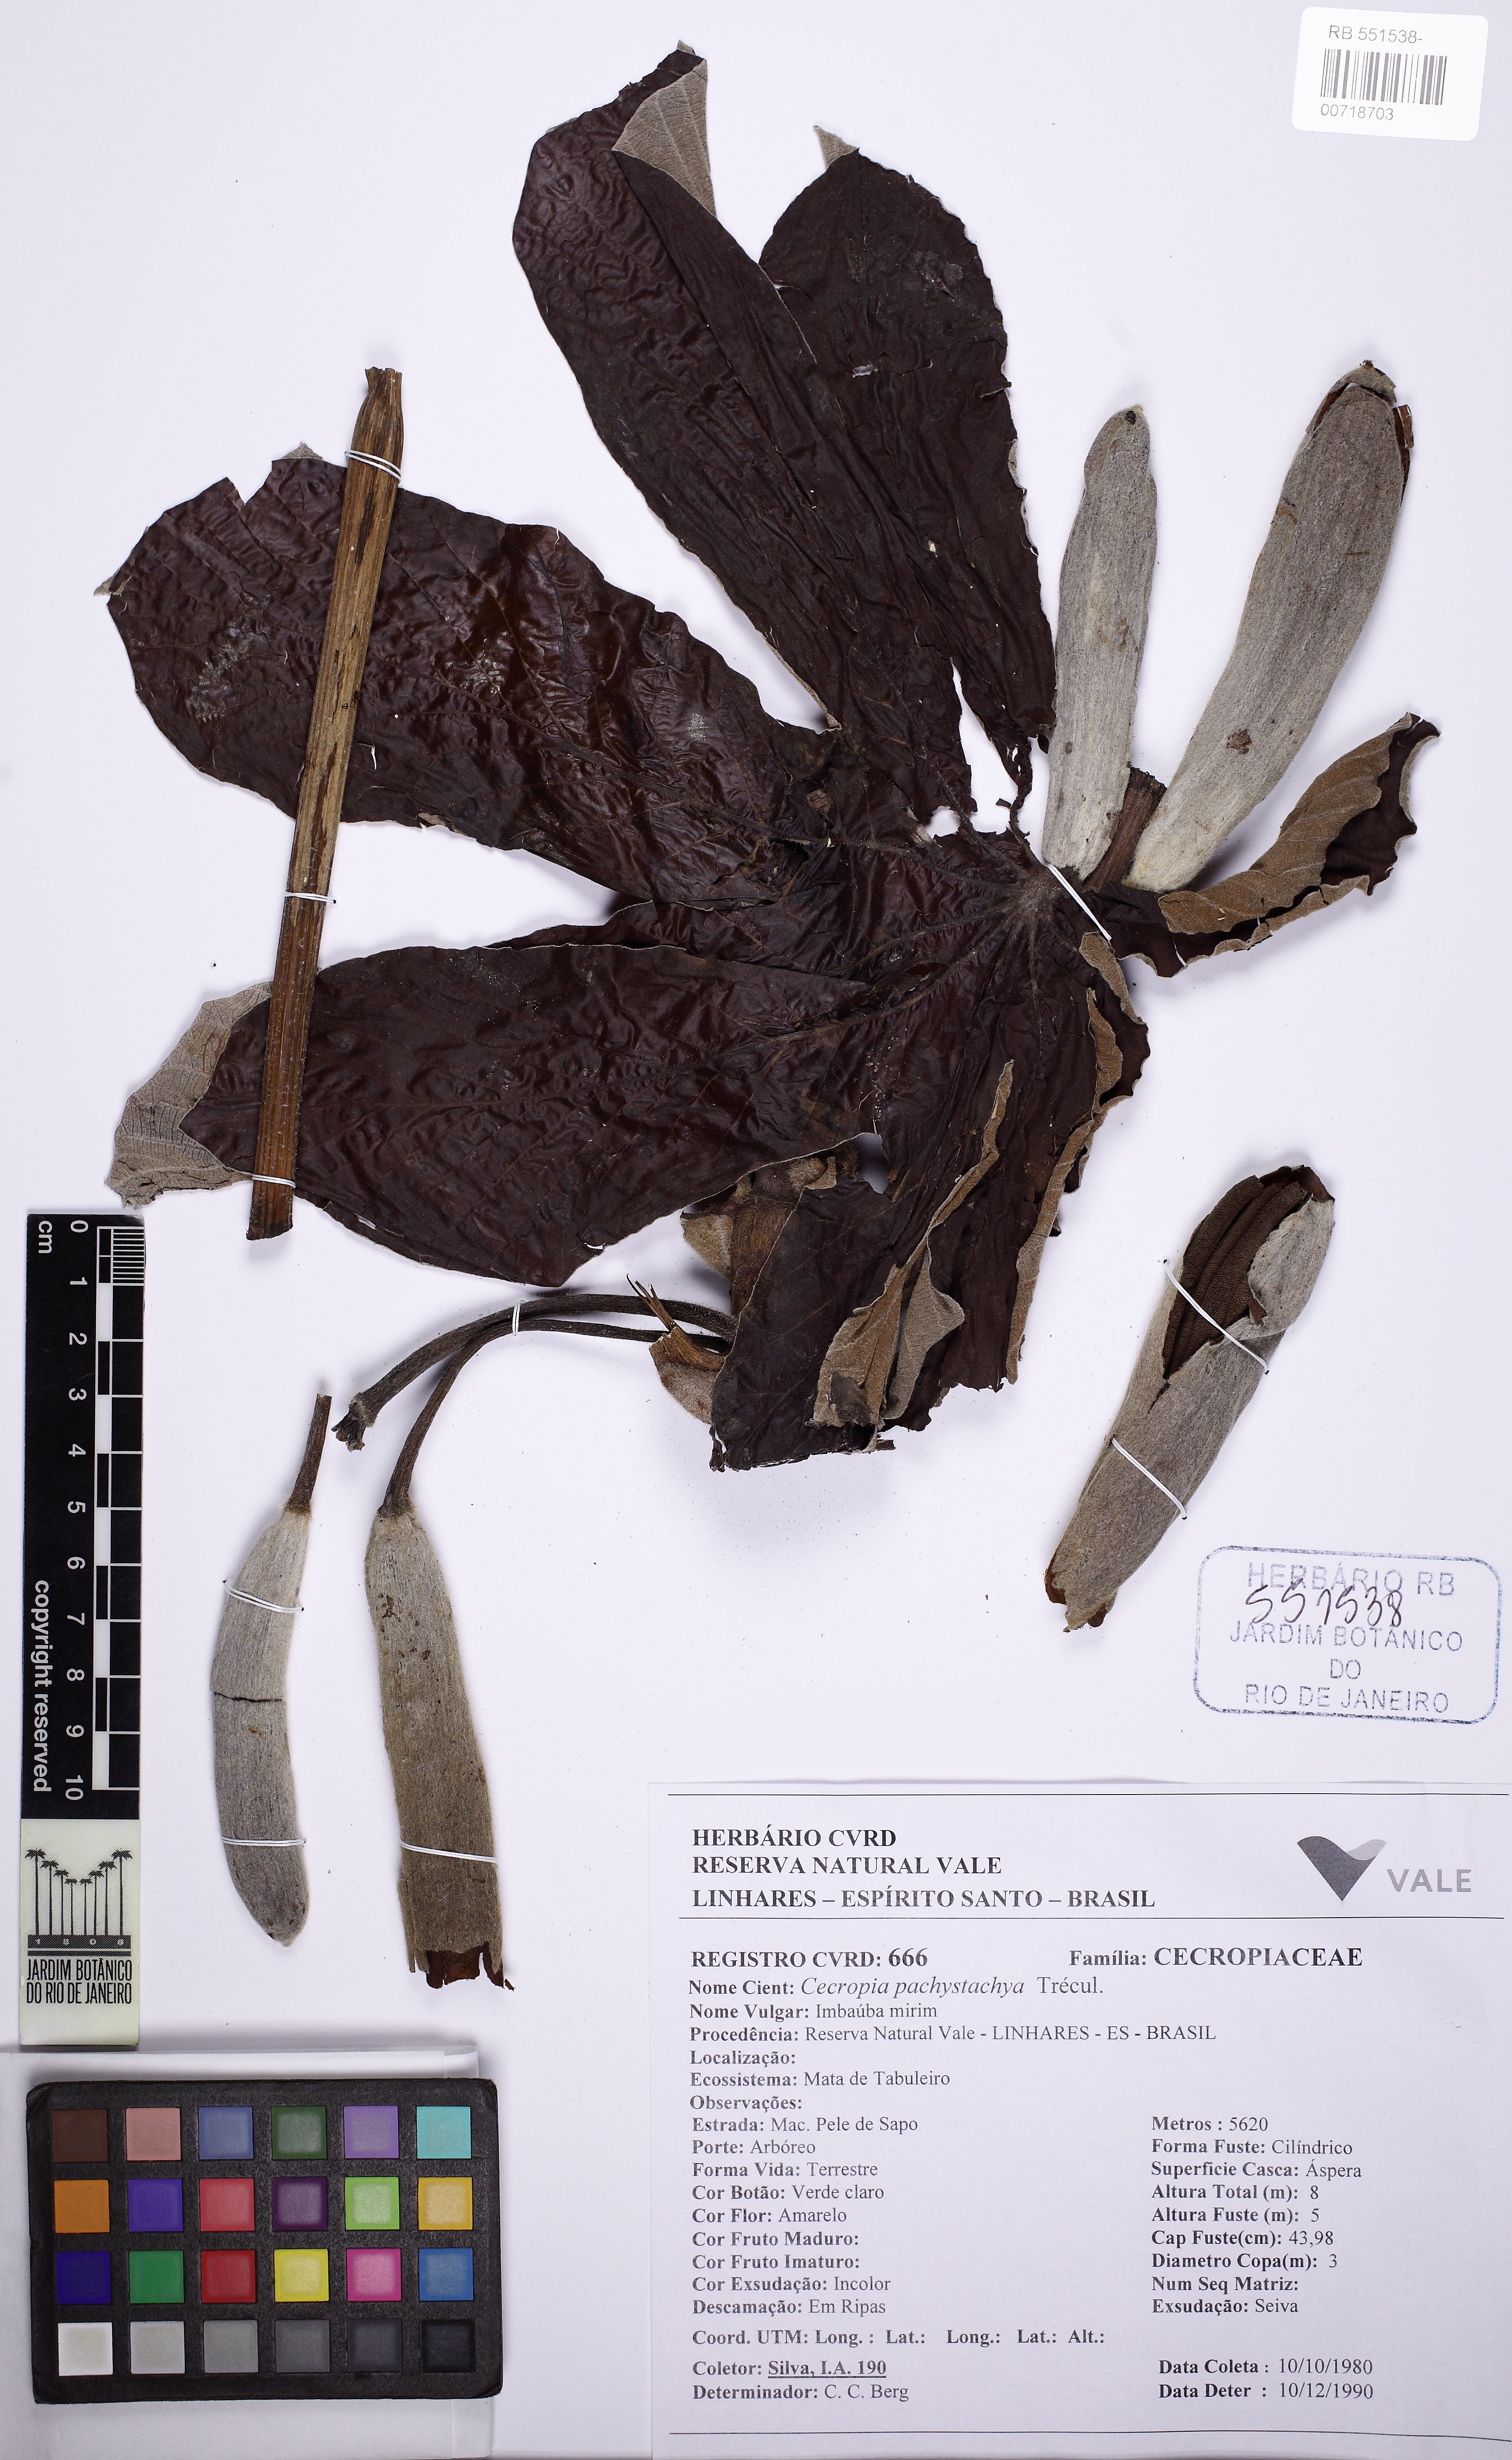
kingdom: Plantae
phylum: Tracheophyta
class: Magnoliopsida
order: Rosales
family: Urticaceae
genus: Cecropia
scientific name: Cecropia pachystachya
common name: Ambay pumpwood
